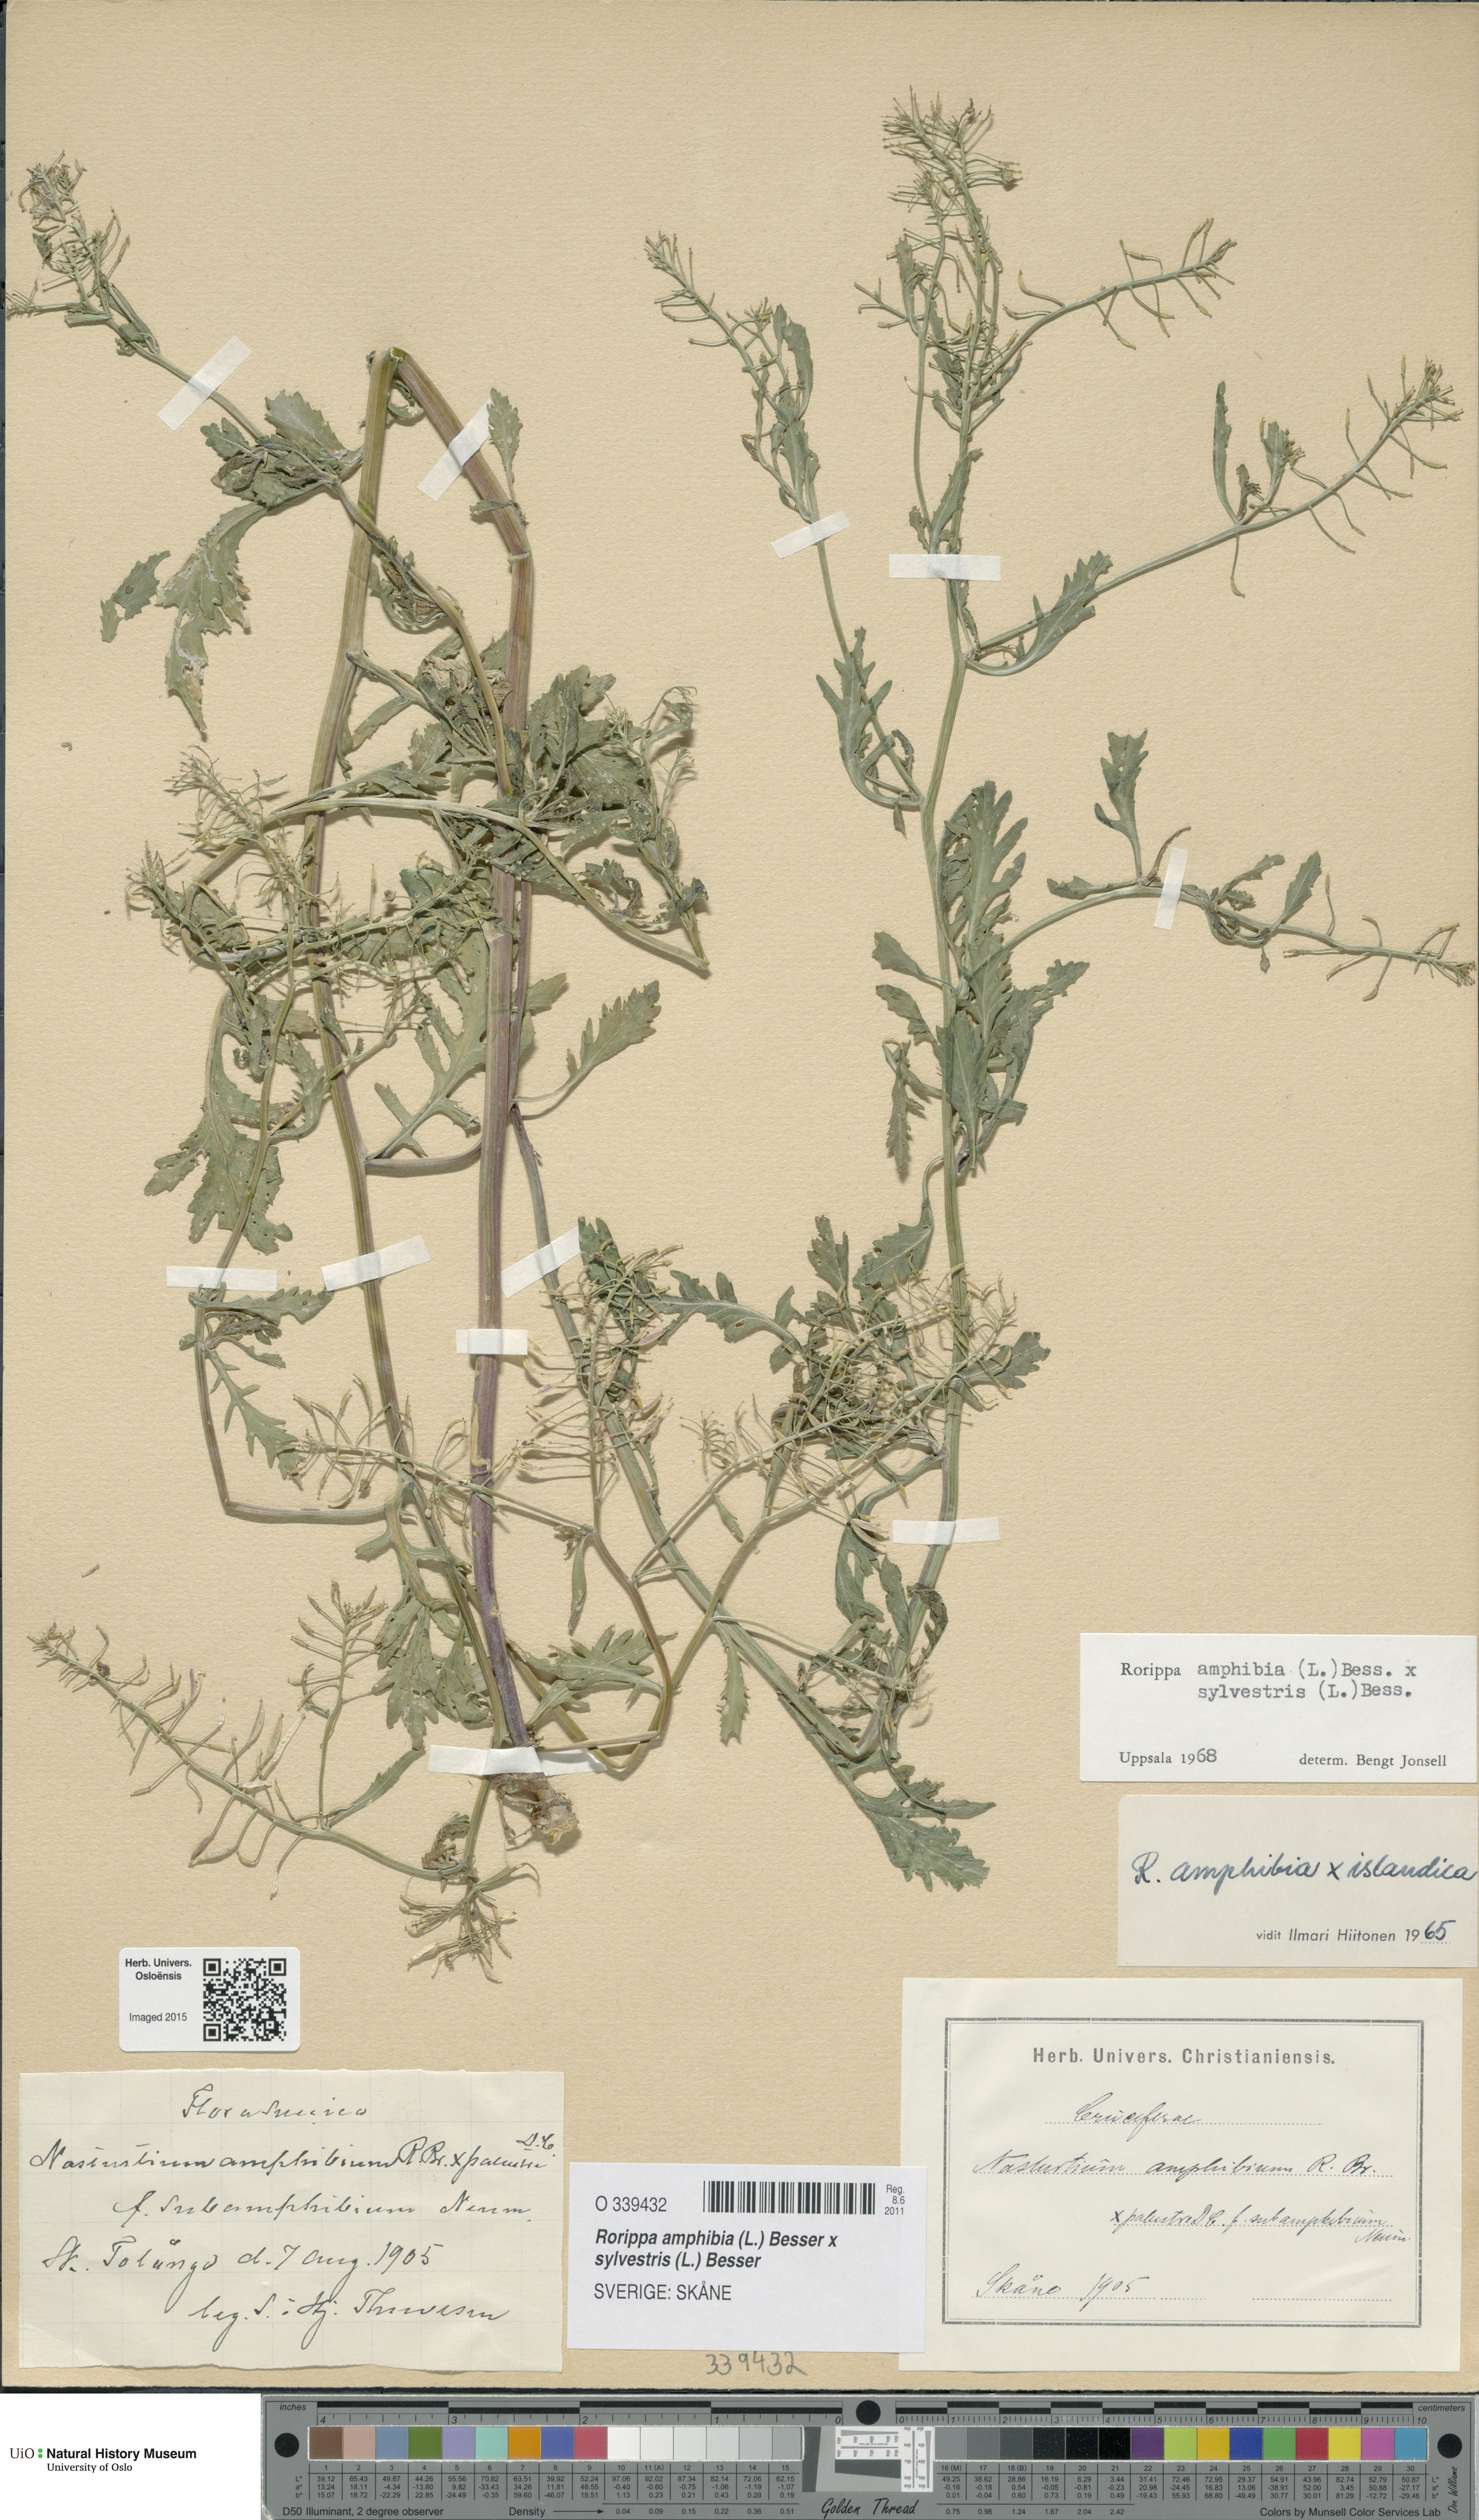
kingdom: Plantae
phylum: Tracheophyta
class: Magnoliopsida
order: Brassicales
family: Brassicaceae
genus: Rorippa
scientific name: Rorippa
